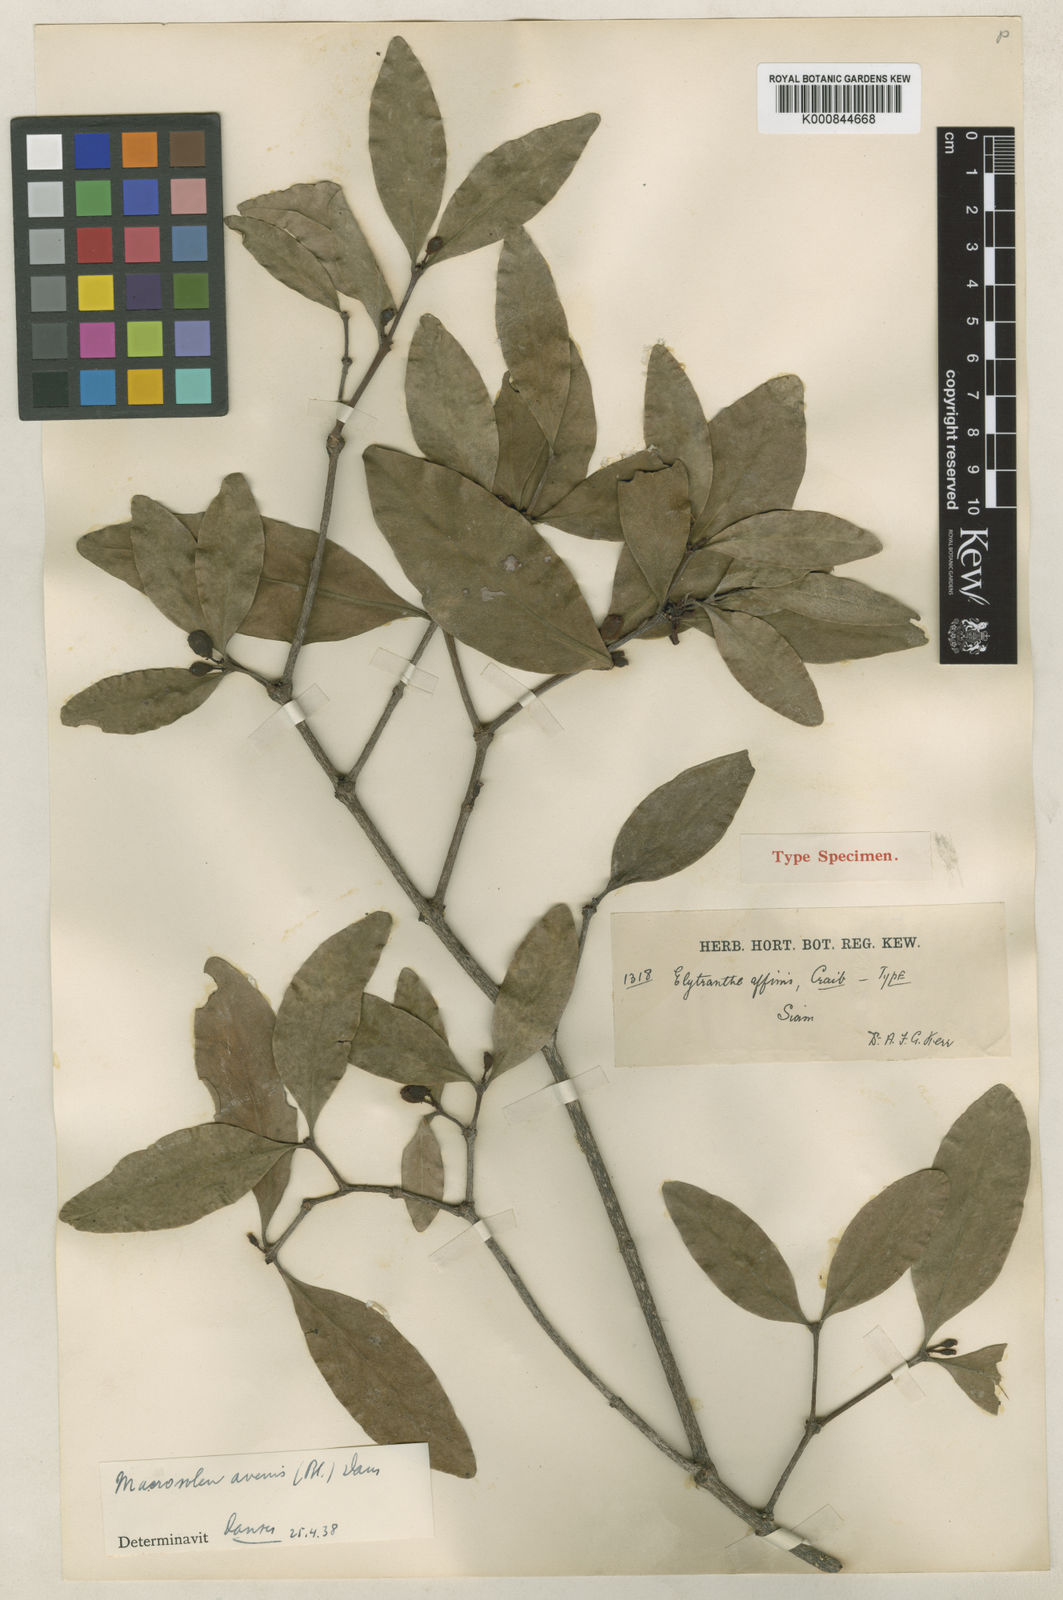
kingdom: Plantae
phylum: Tracheophyta
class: Magnoliopsida
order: Santalales
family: Loranthaceae
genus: Macrosolen
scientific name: Macrosolen
